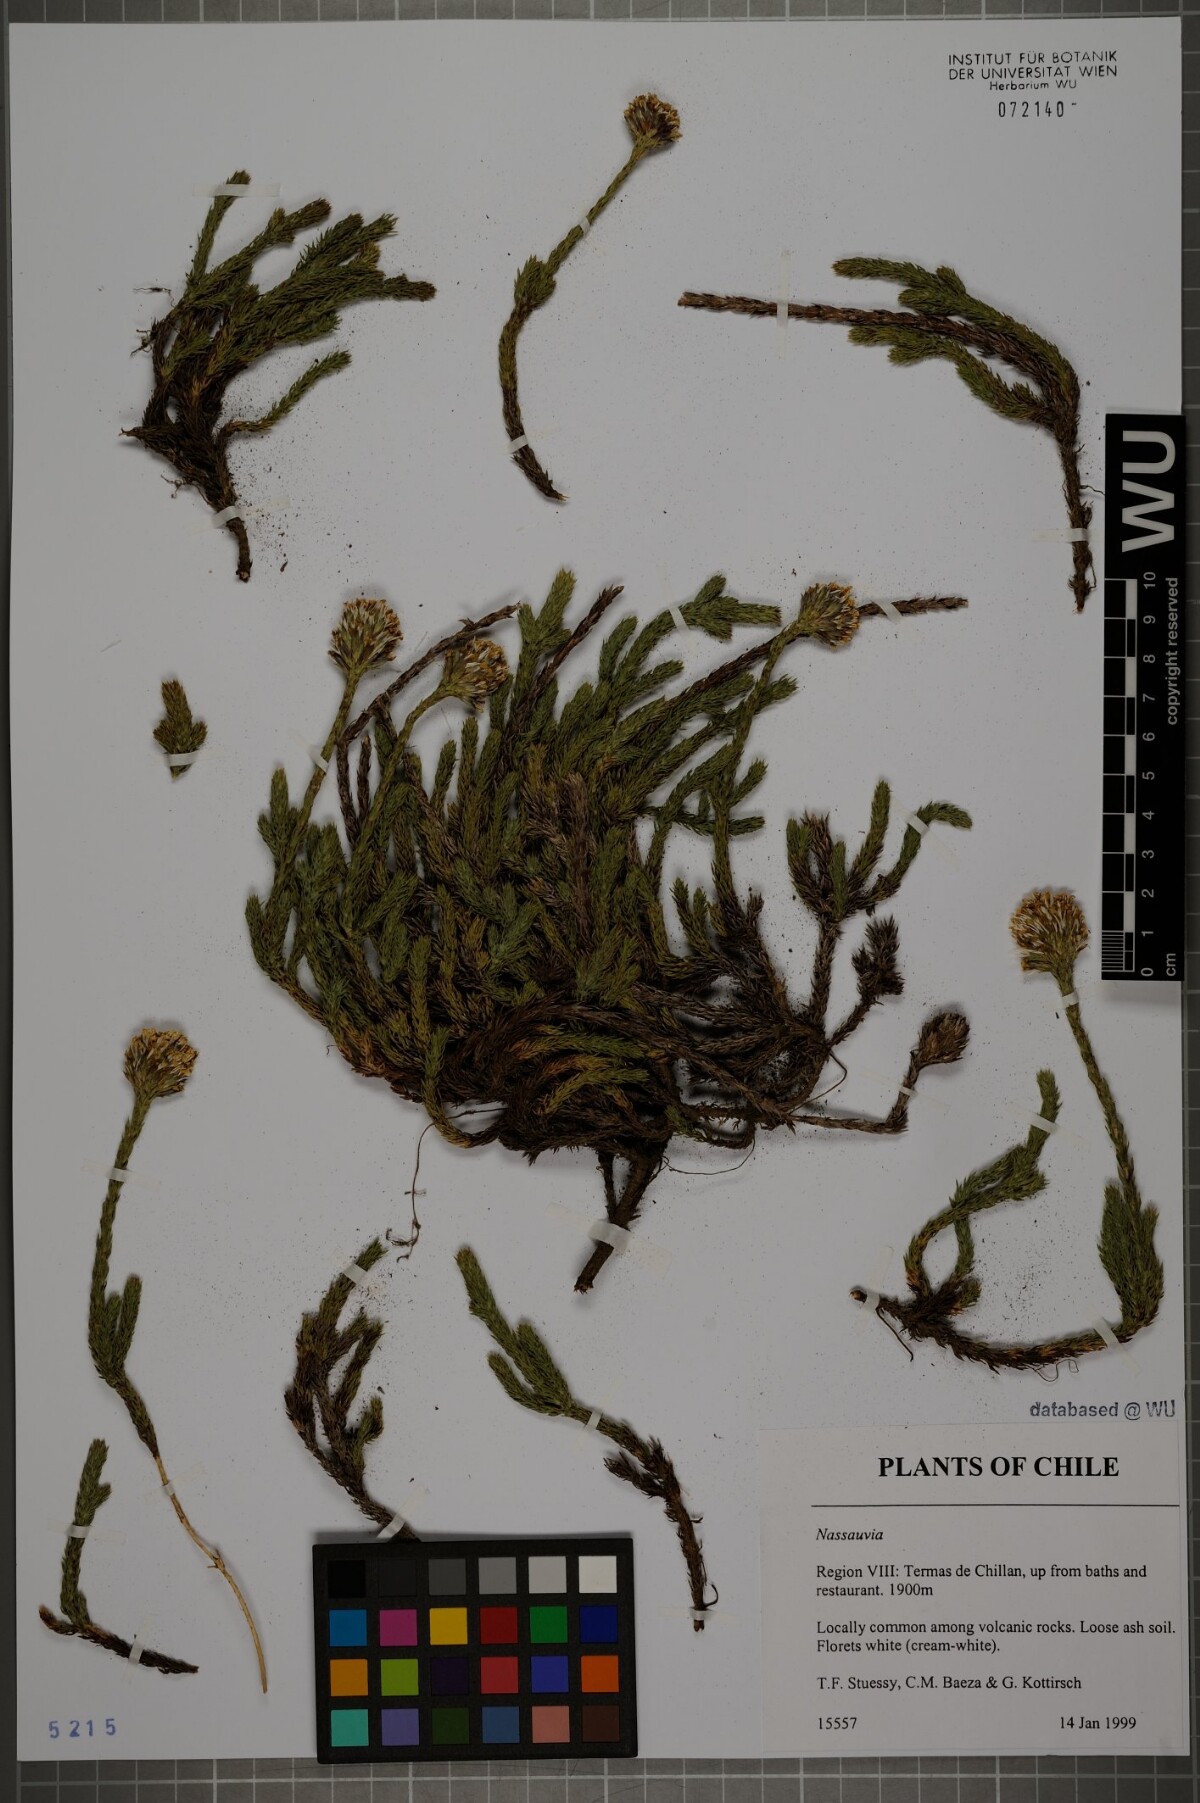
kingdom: Plantae
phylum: Tracheophyta
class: Magnoliopsida
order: Asterales
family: Asteraceae
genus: Nassauvia
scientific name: Nassauvia
